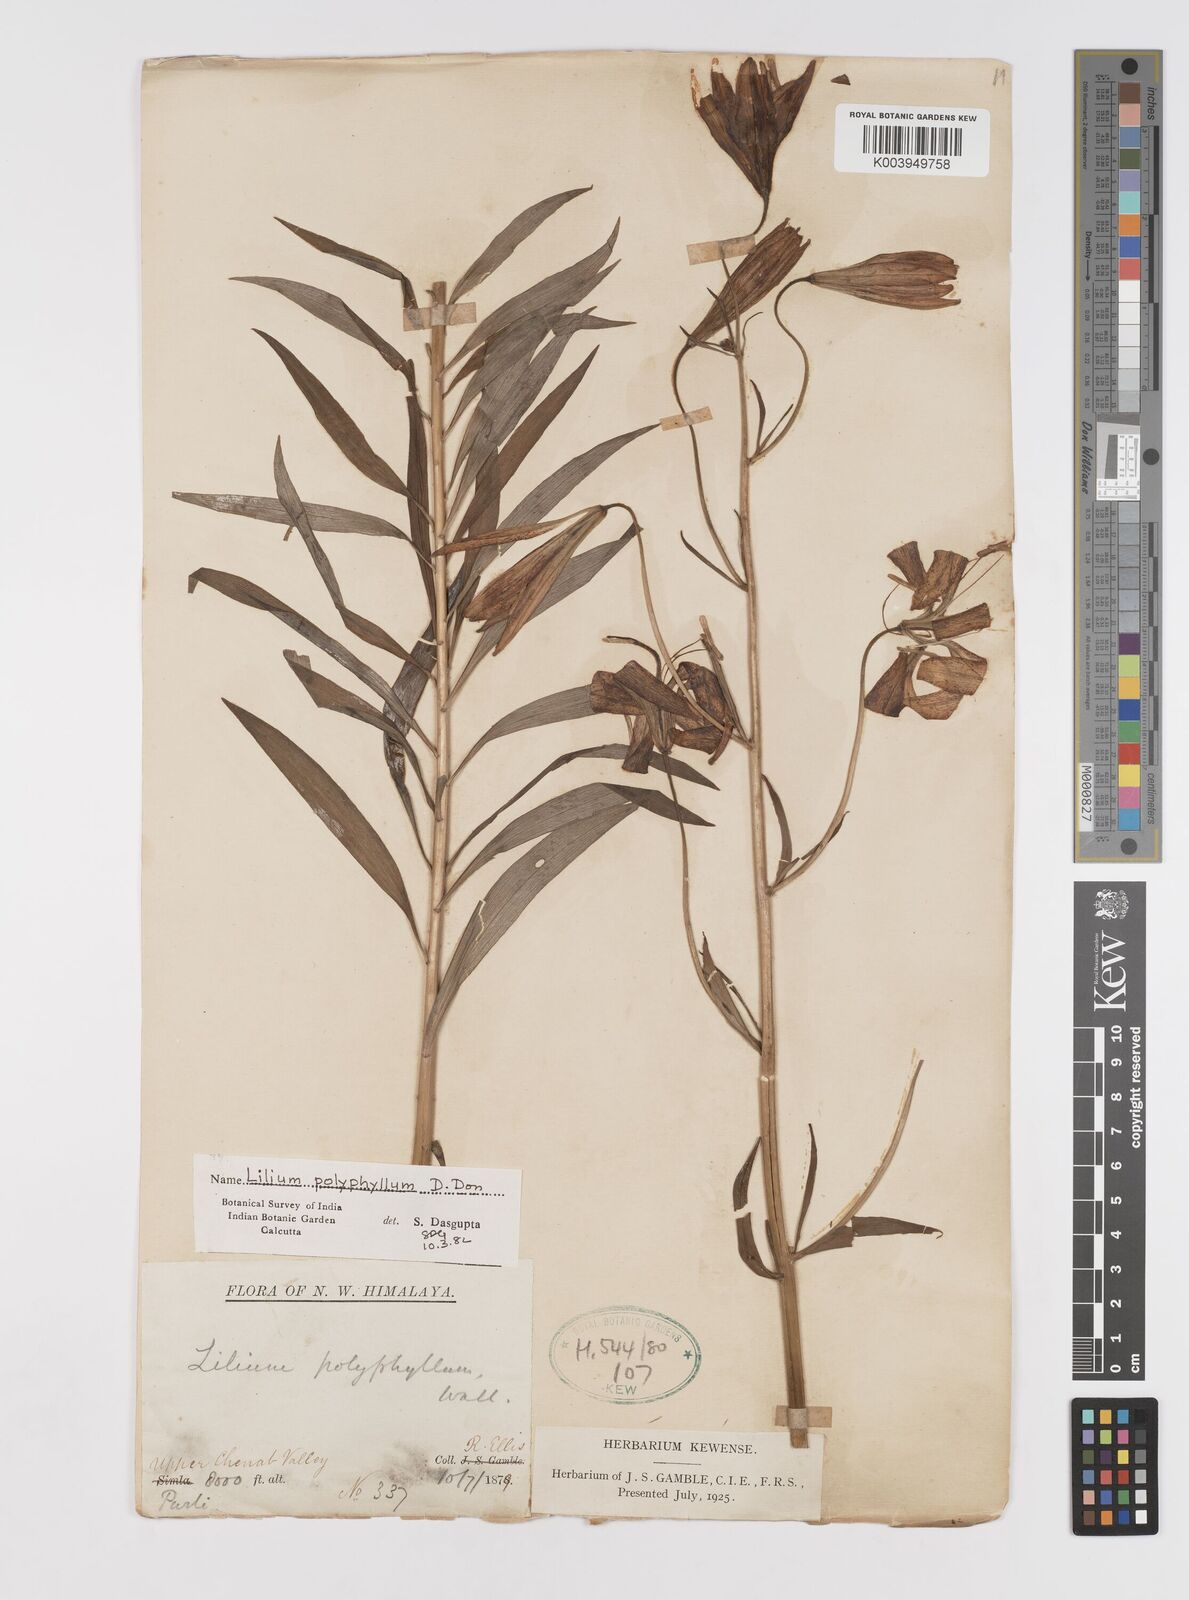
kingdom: Plantae
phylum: Tracheophyta
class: Liliopsida
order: Liliales
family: Liliaceae
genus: Lilium
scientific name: Lilium polyphyllum
